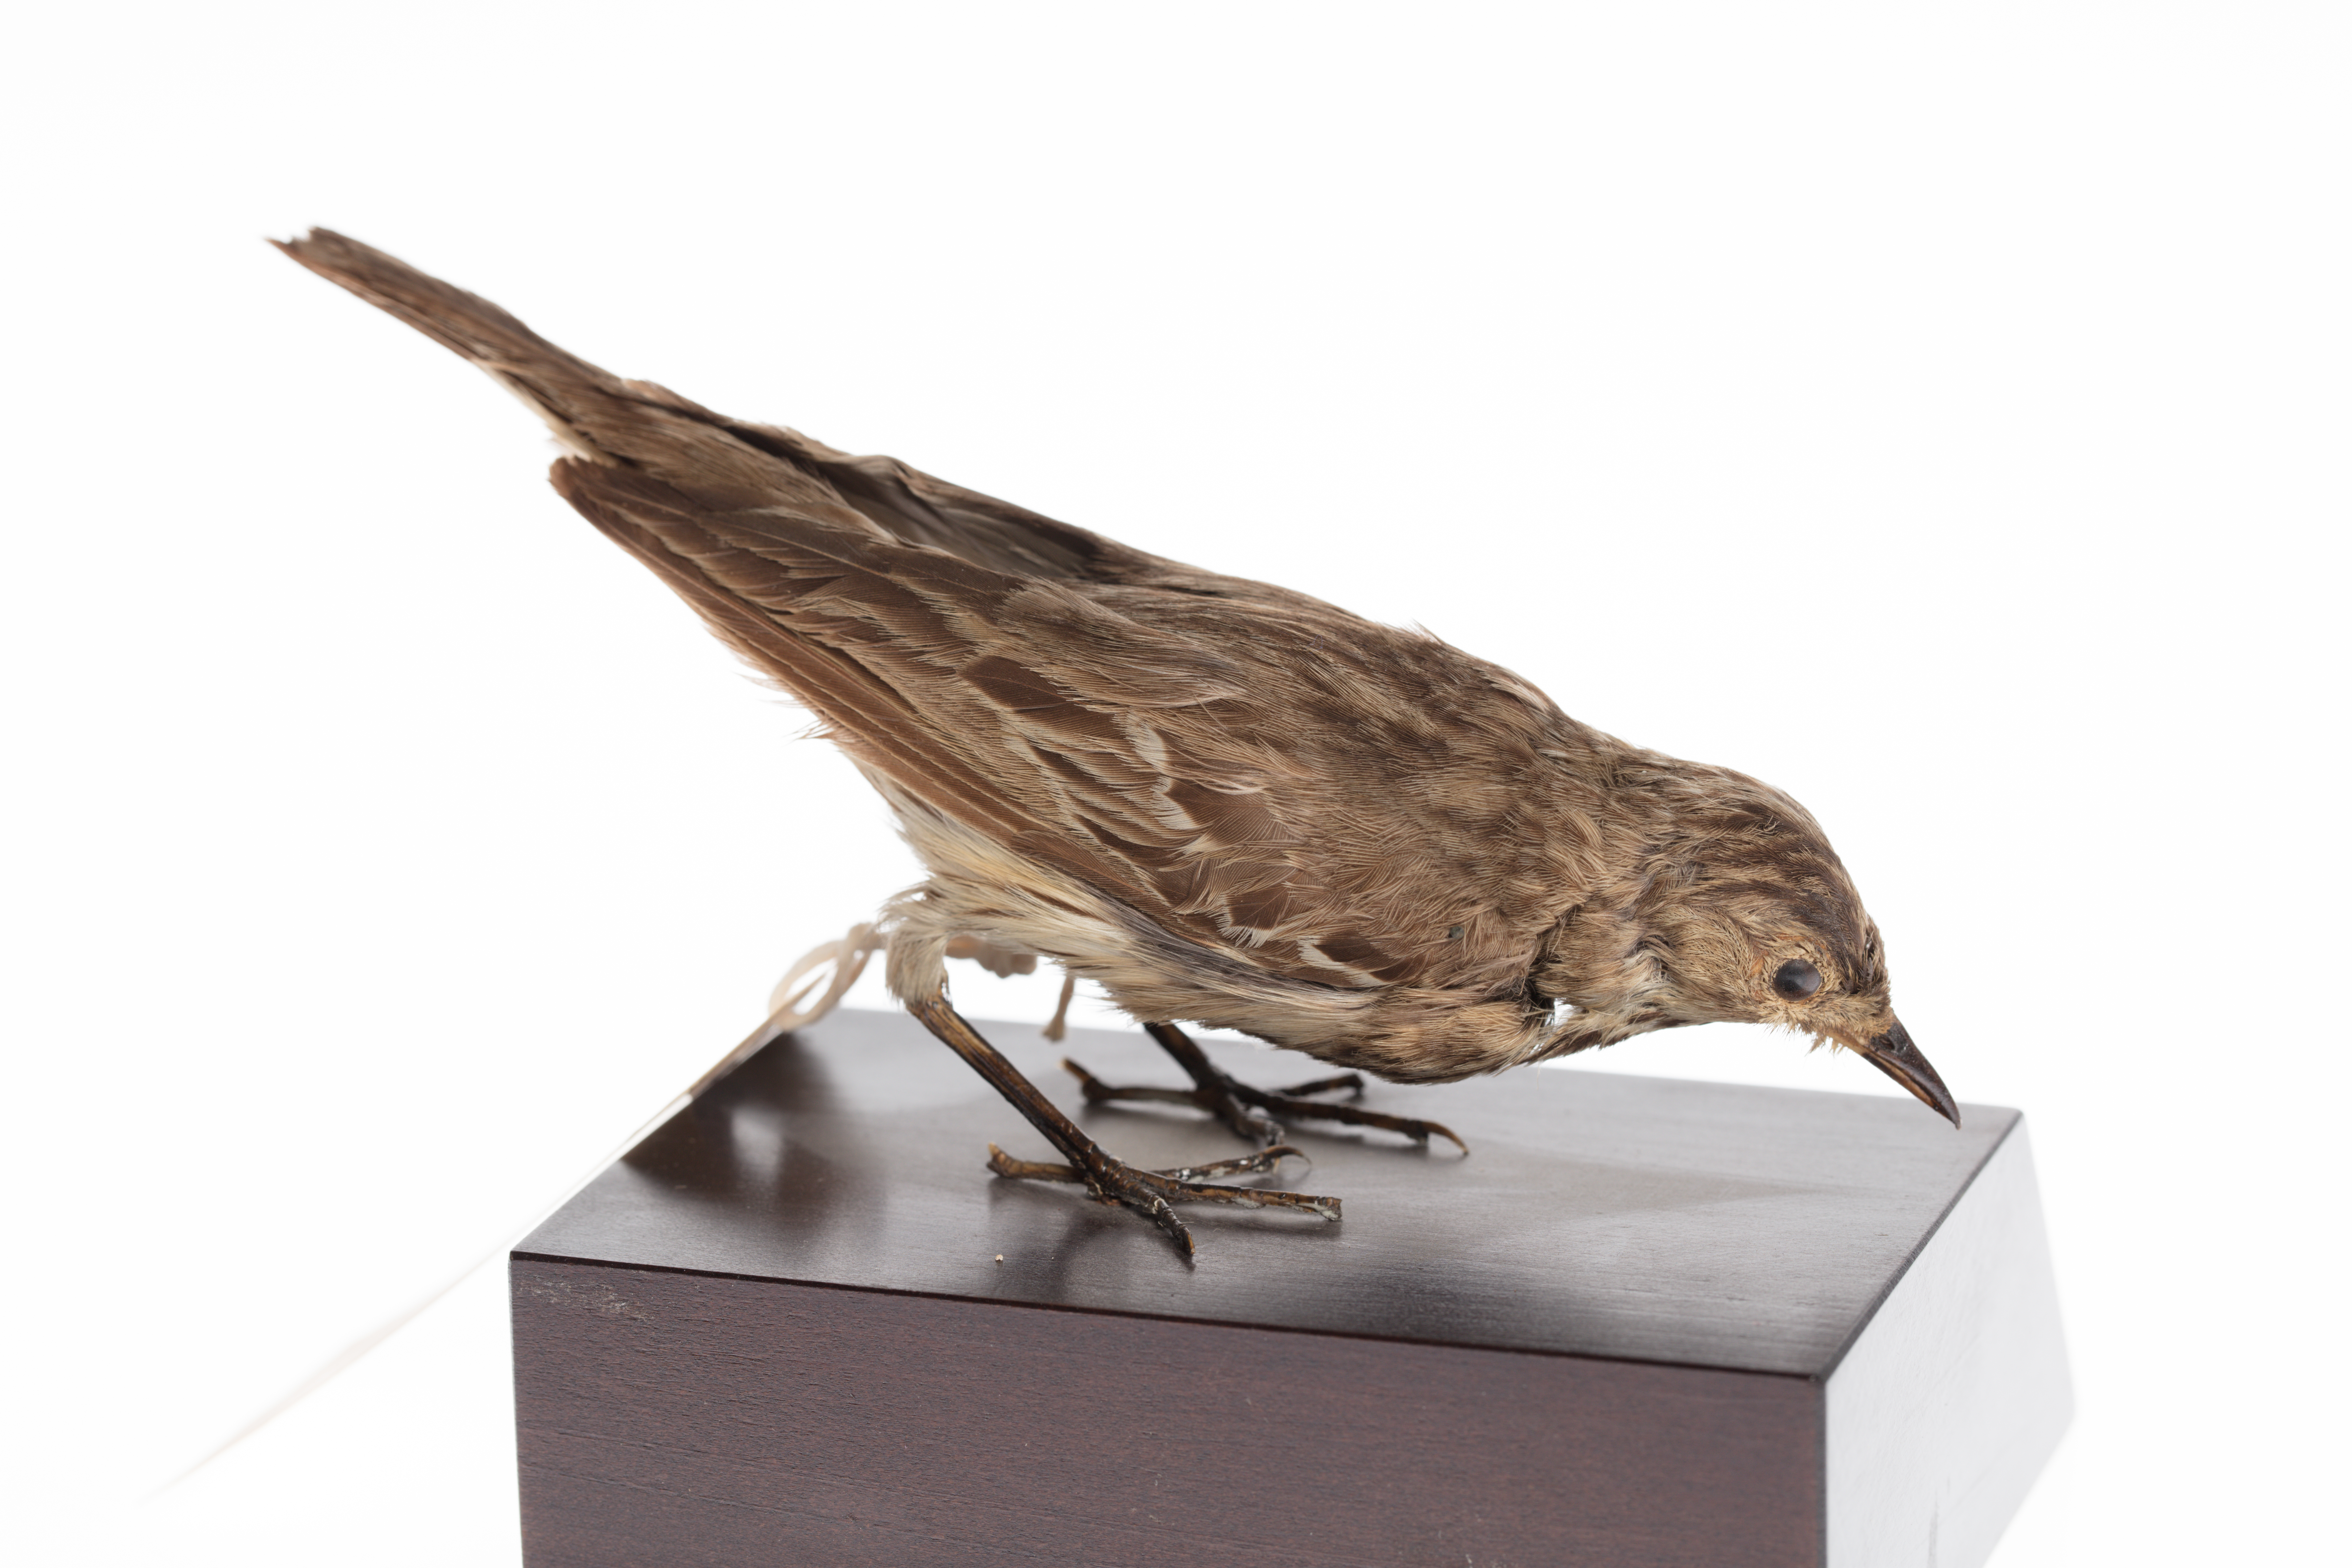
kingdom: Animalia
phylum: Chordata
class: Aves
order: Passeriformes
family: Motacillidae
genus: Anthus
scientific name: Anthus trivialis
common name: Tree pipit
